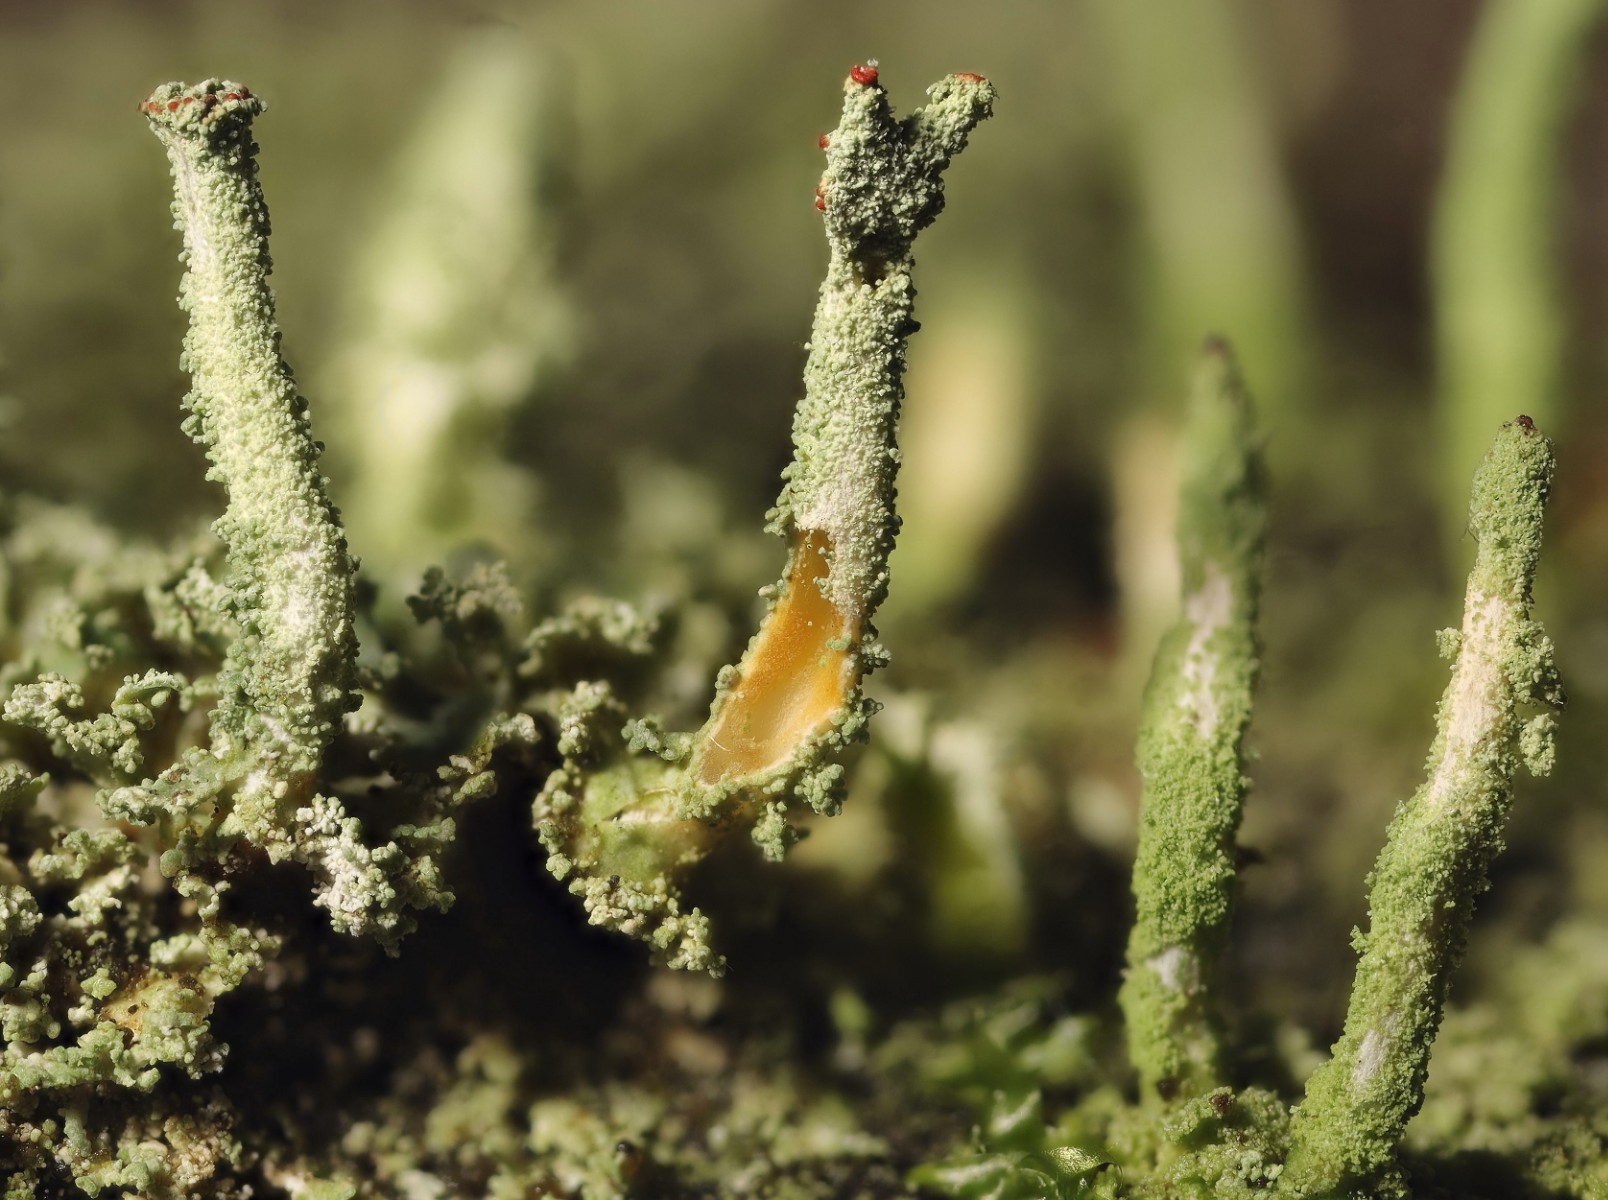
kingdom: Fungi
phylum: Ascomycota
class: Lecanoromycetes
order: Lecanorales
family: Cladoniaceae
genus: Cladonia
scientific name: Cladonia macilenta
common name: indsvunden bægerlav
